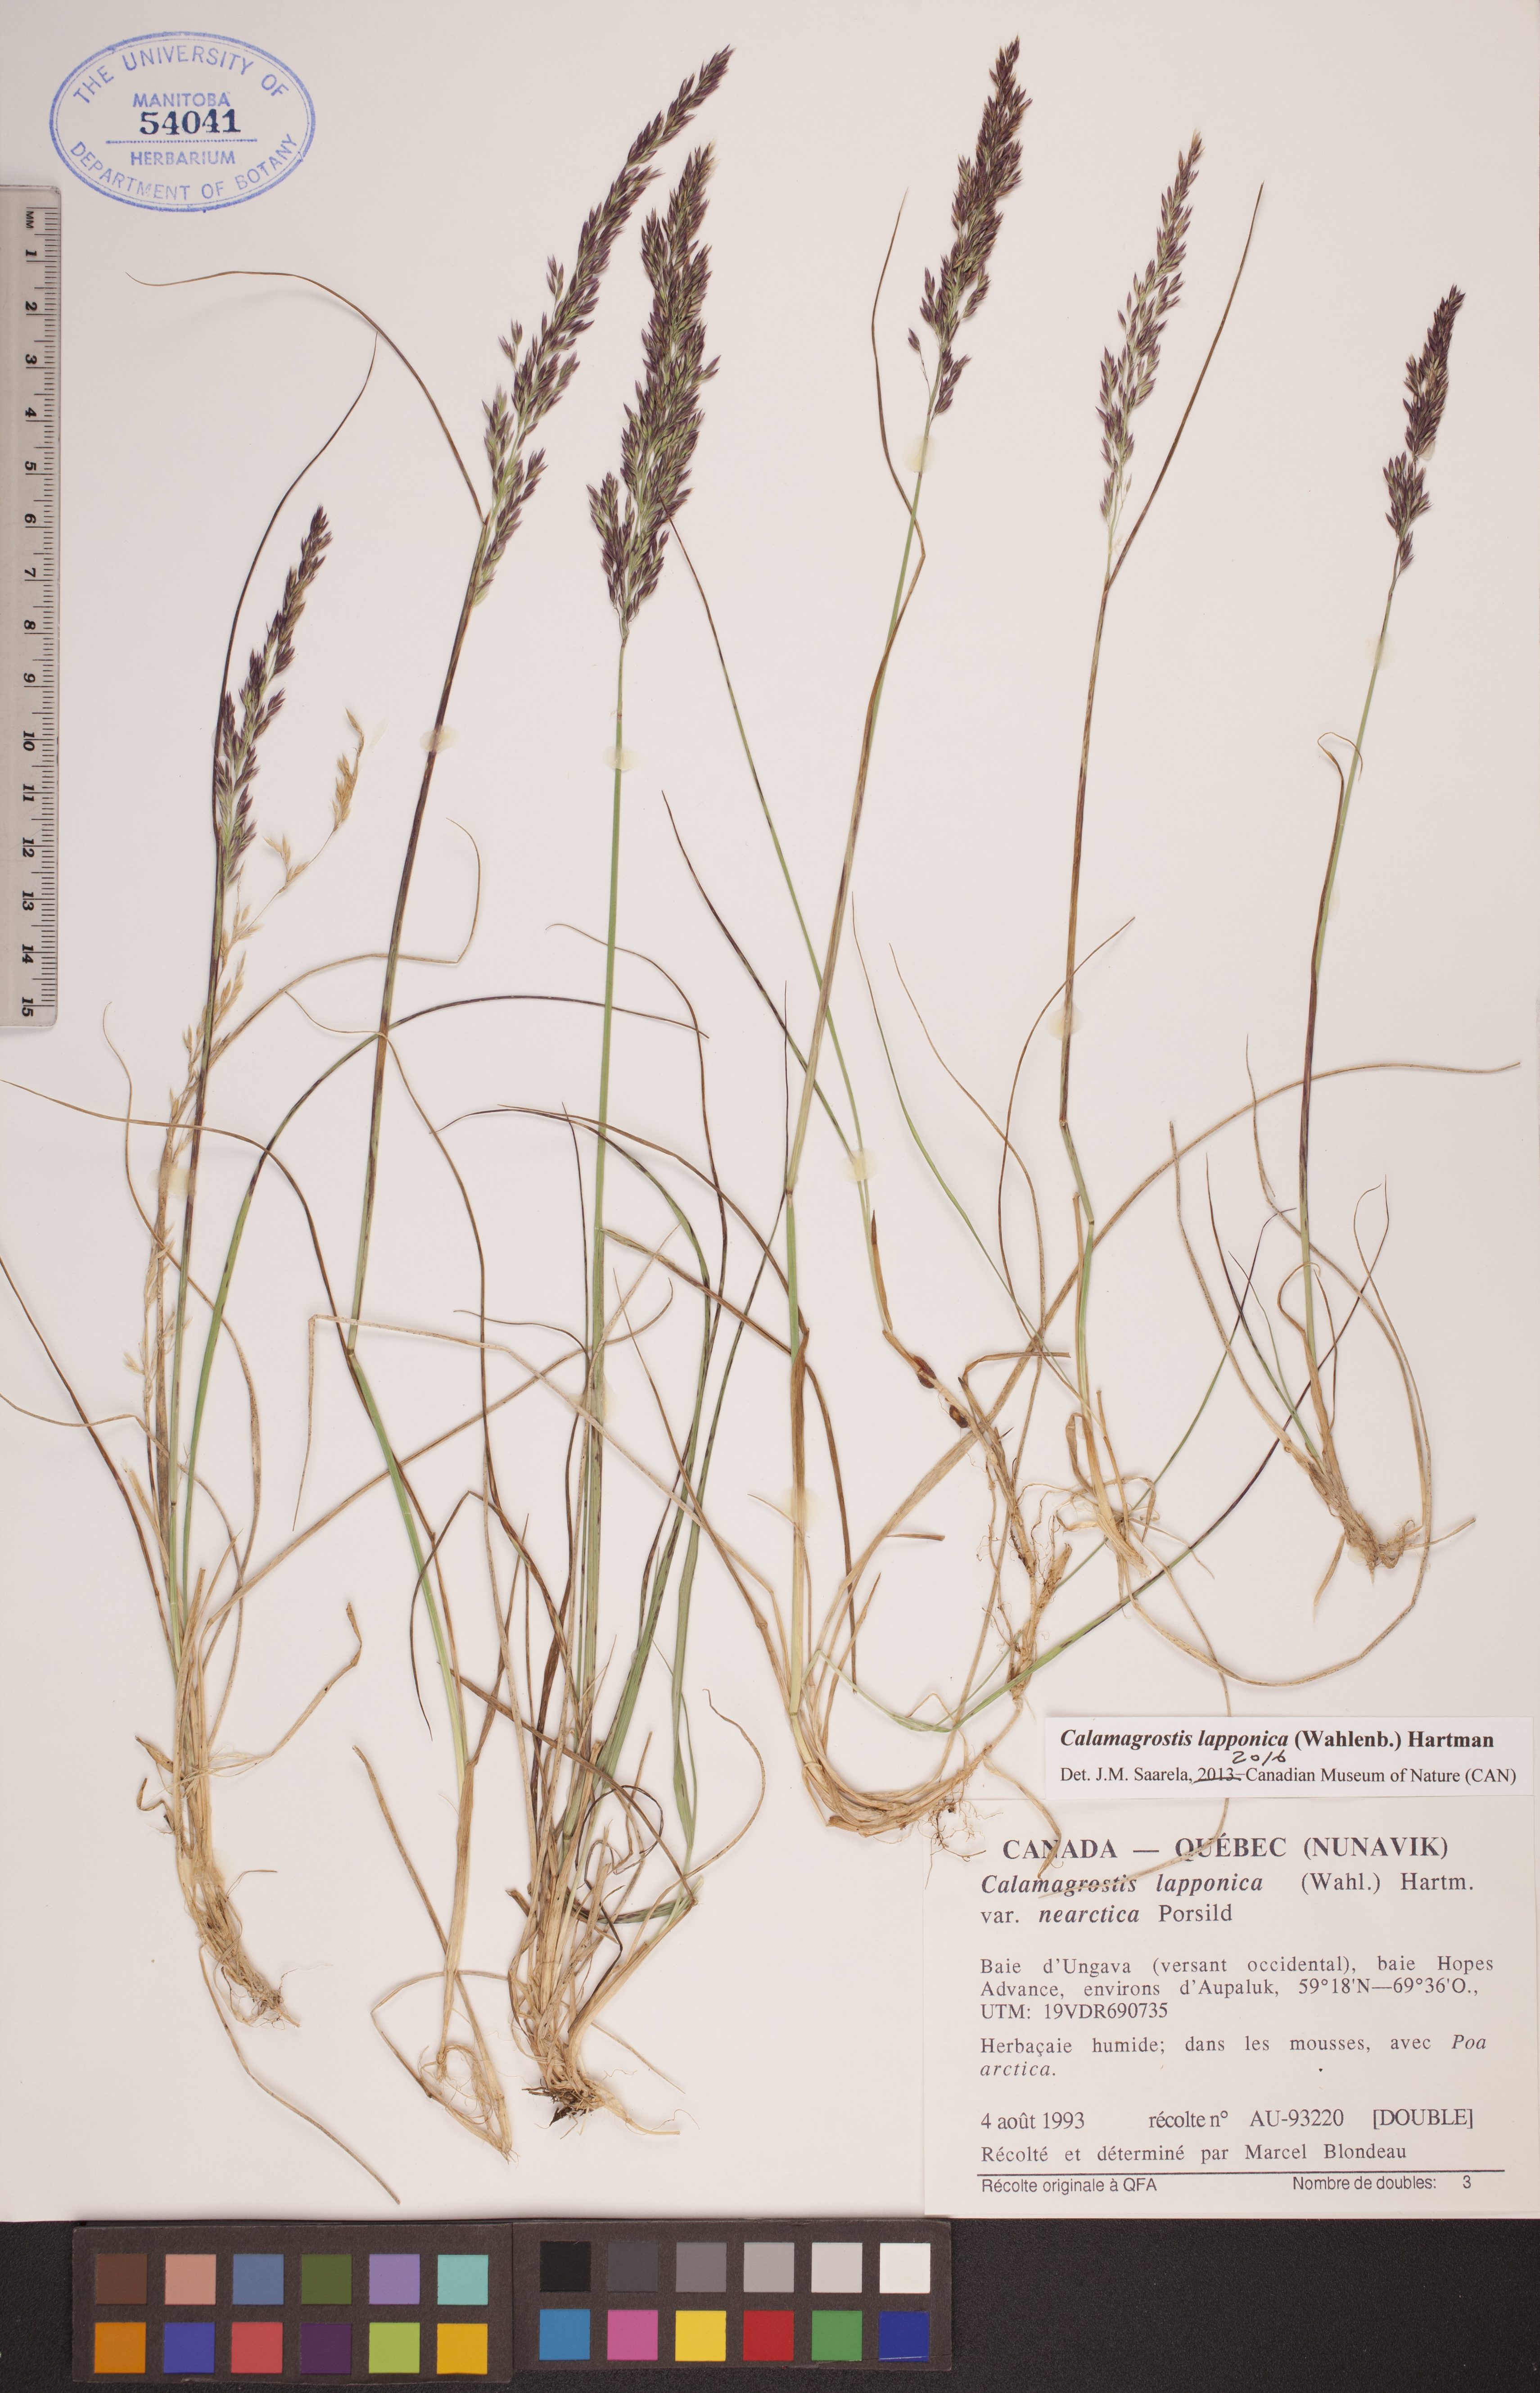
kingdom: Plantae
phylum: Tracheophyta
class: Liliopsida
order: Poales
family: Poaceae
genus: Calamagrostis
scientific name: Calamagrostis lapponica
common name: Lapland reedgrass
